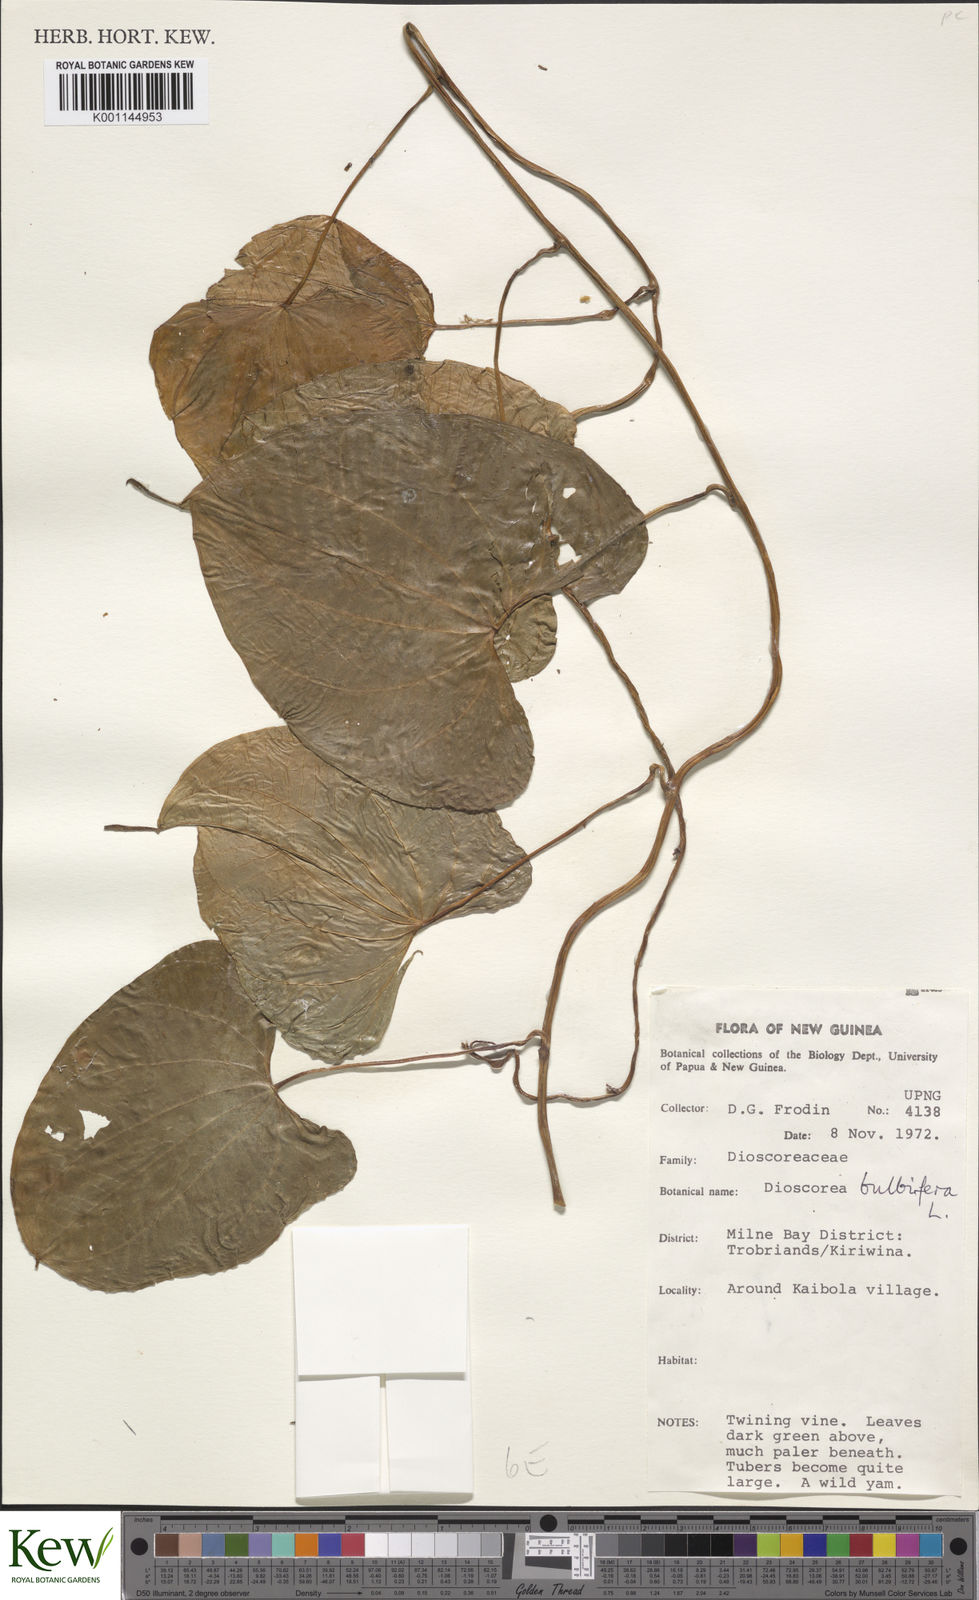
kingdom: Plantae
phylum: Tracheophyta
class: Liliopsida
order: Dioscoreales
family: Dioscoreaceae
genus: Dioscorea
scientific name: Dioscorea bulbifera
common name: Air yam
